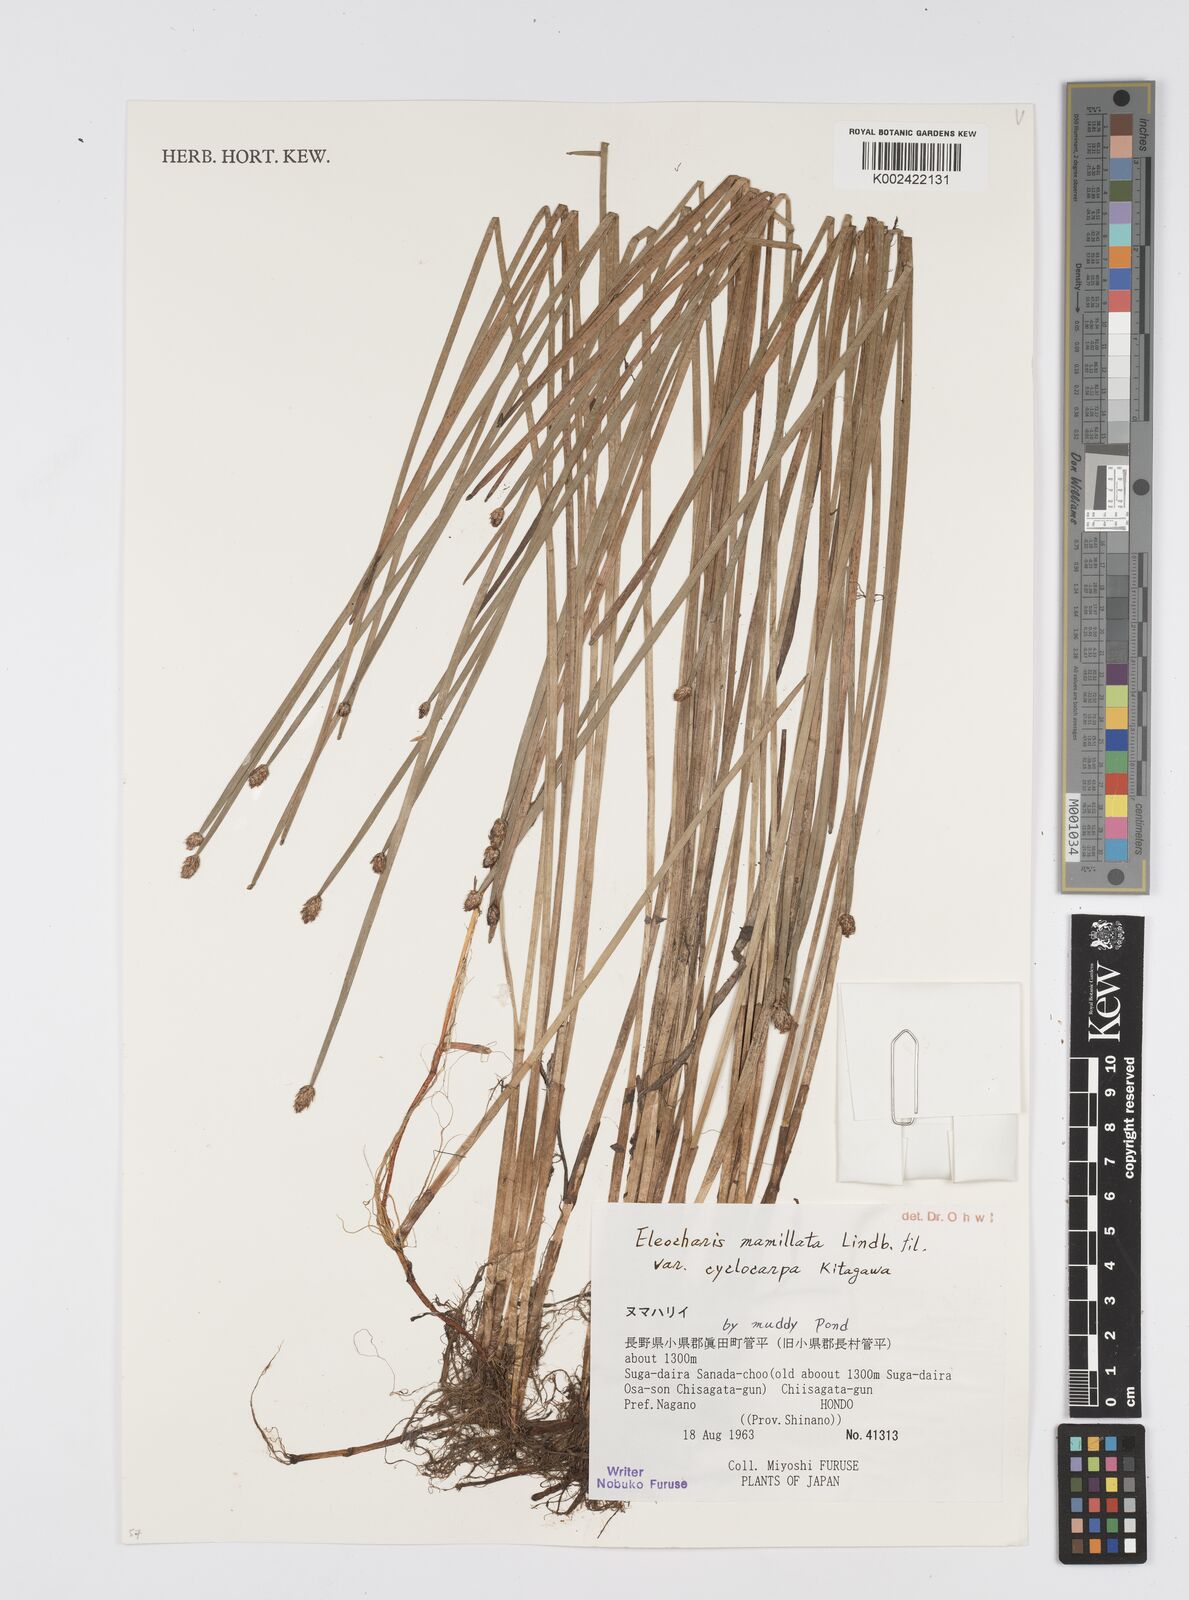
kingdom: Plantae
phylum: Tracheophyta
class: Liliopsida
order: Poales
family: Cyperaceae
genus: Eleocharis
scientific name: Eleocharis mamillata
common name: Northern spike-rush
